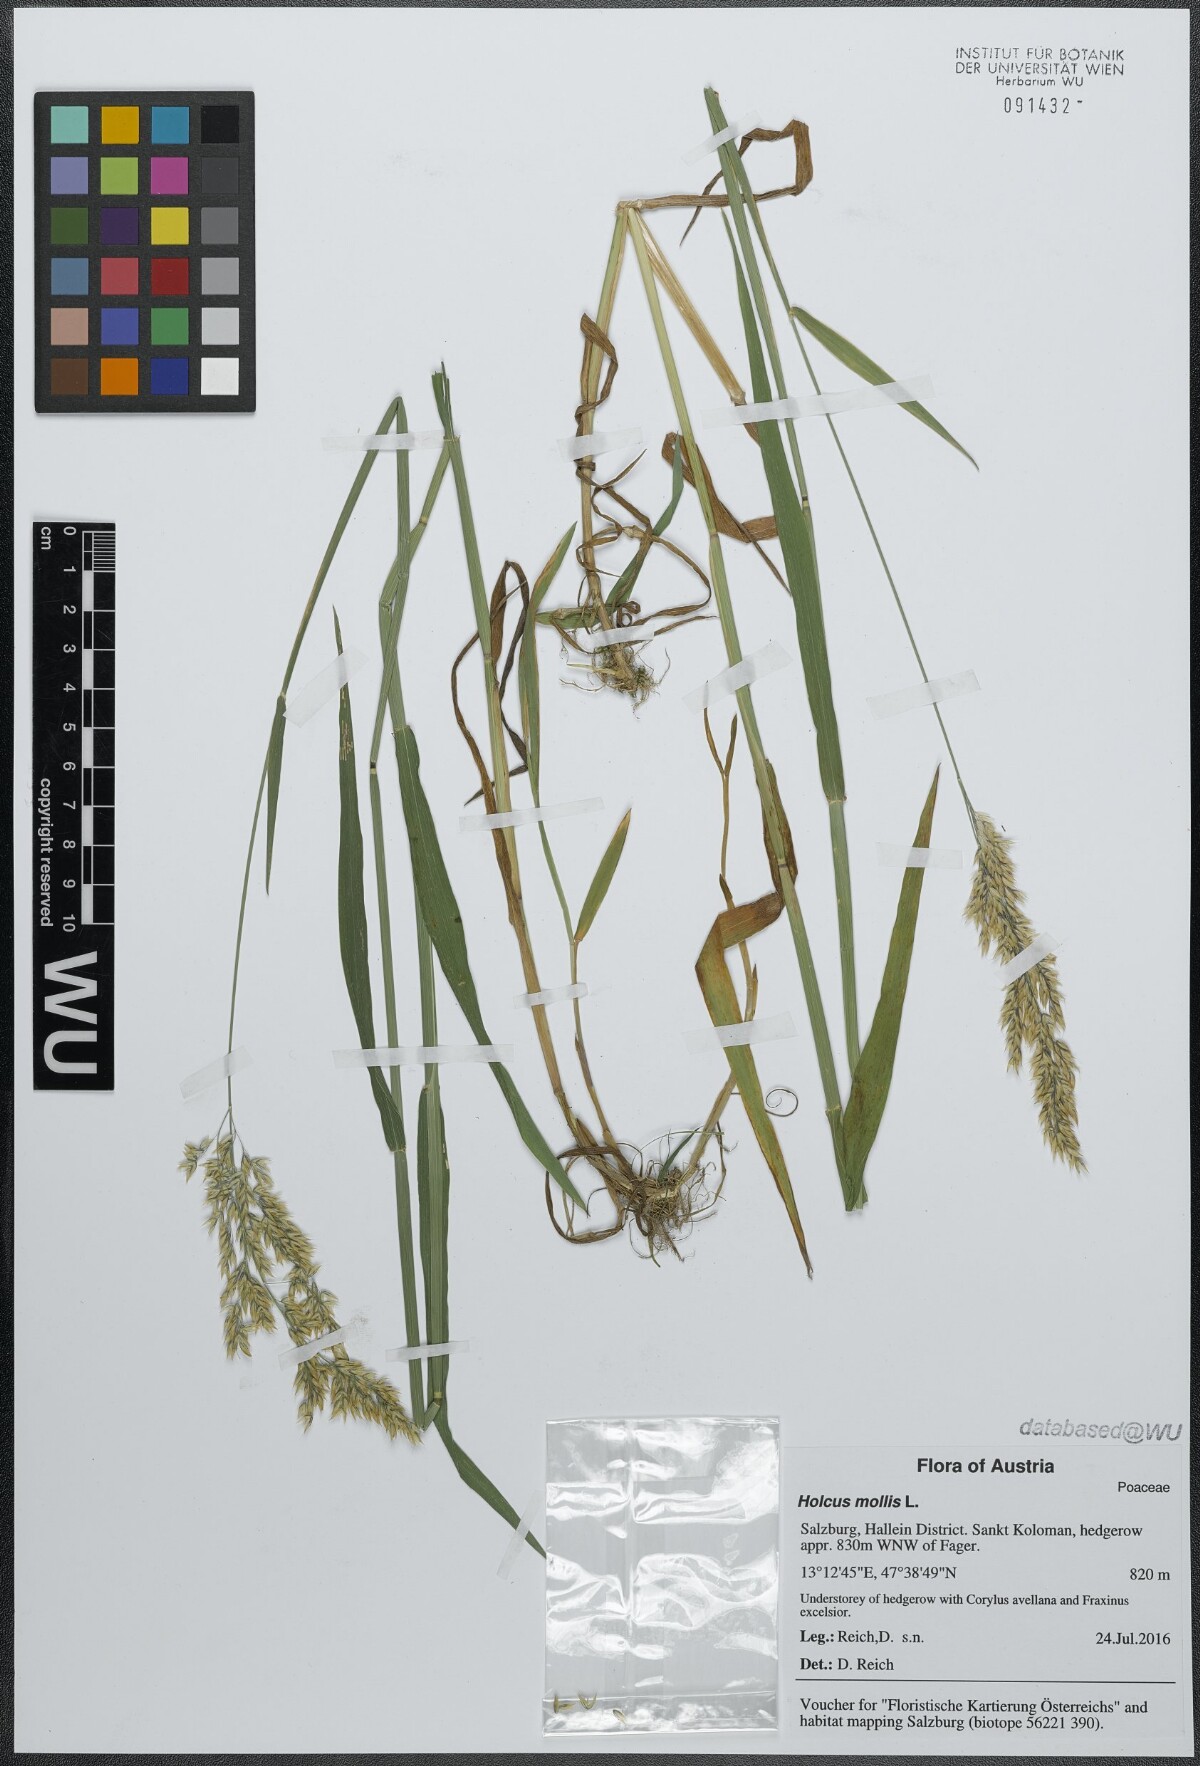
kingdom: Plantae
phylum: Tracheophyta
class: Liliopsida
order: Poales
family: Poaceae
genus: Holcus
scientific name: Holcus mollis
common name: Creeping velvetgrass
